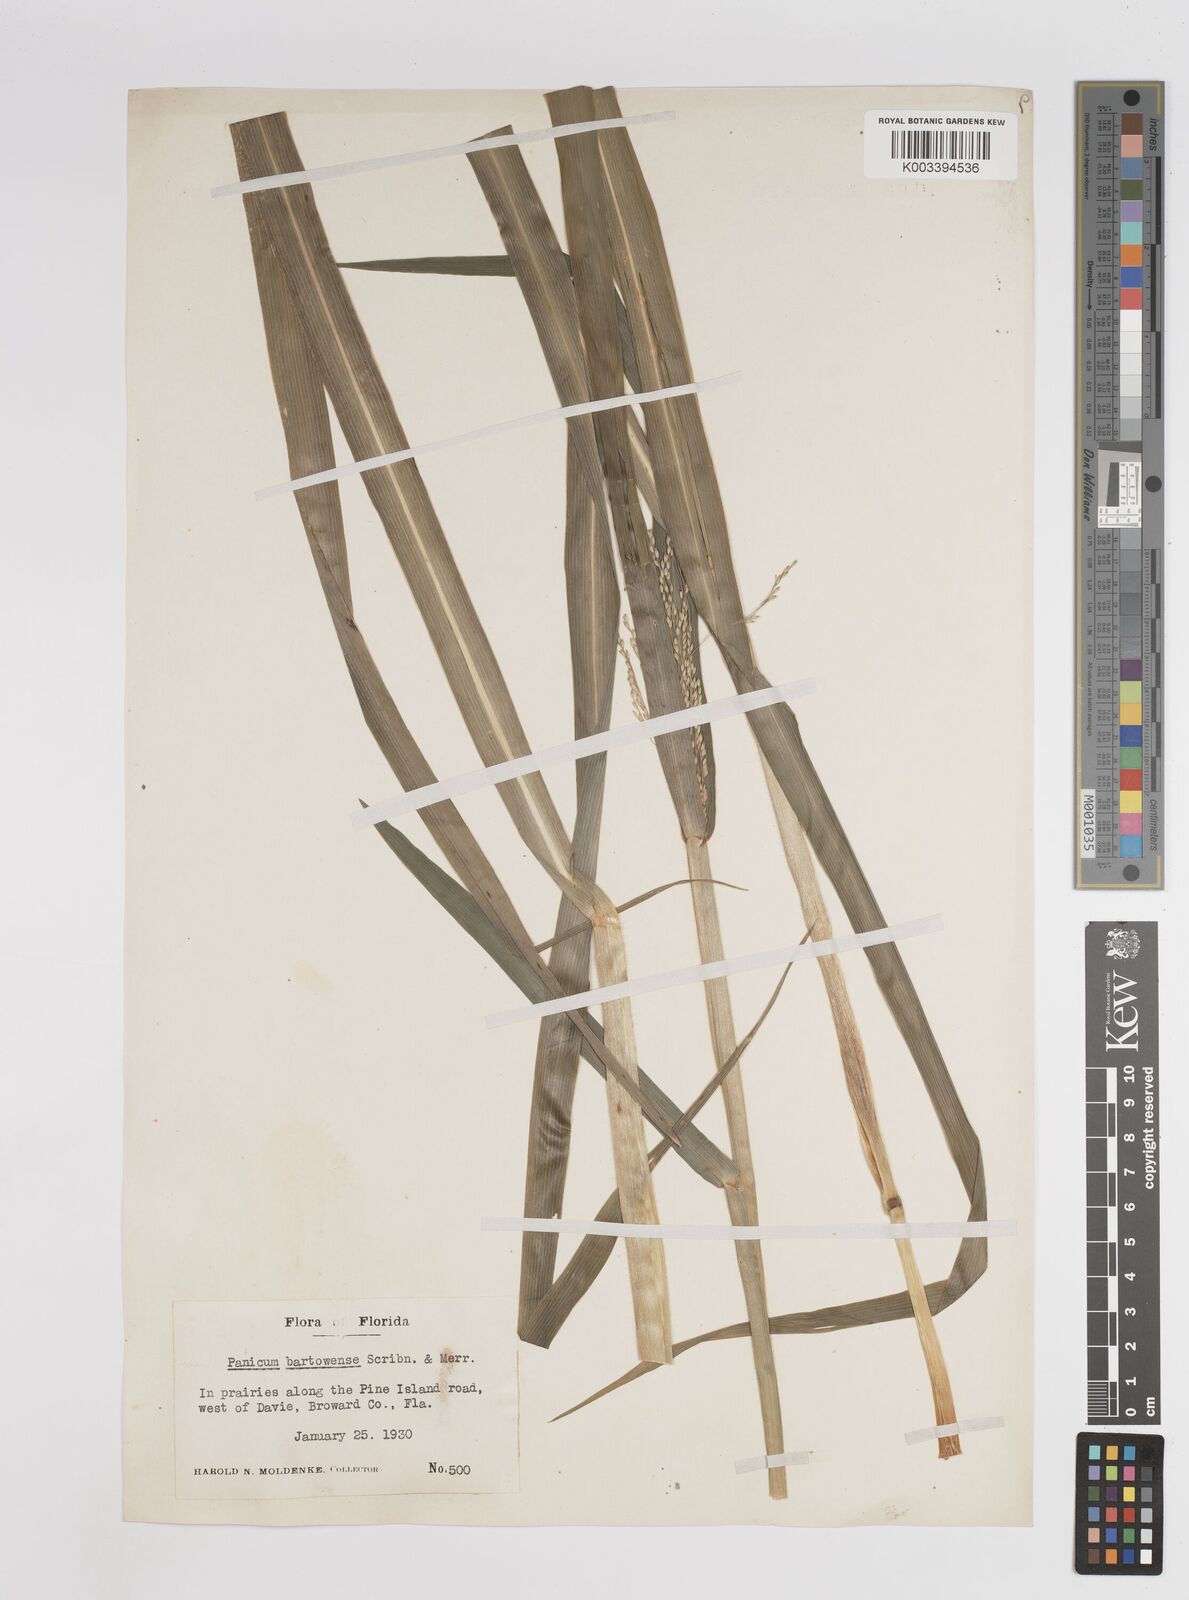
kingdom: Plantae
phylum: Tracheophyta
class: Liliopsida
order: Poales
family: Poaceae
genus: Panicum
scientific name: Panicum bartowense
